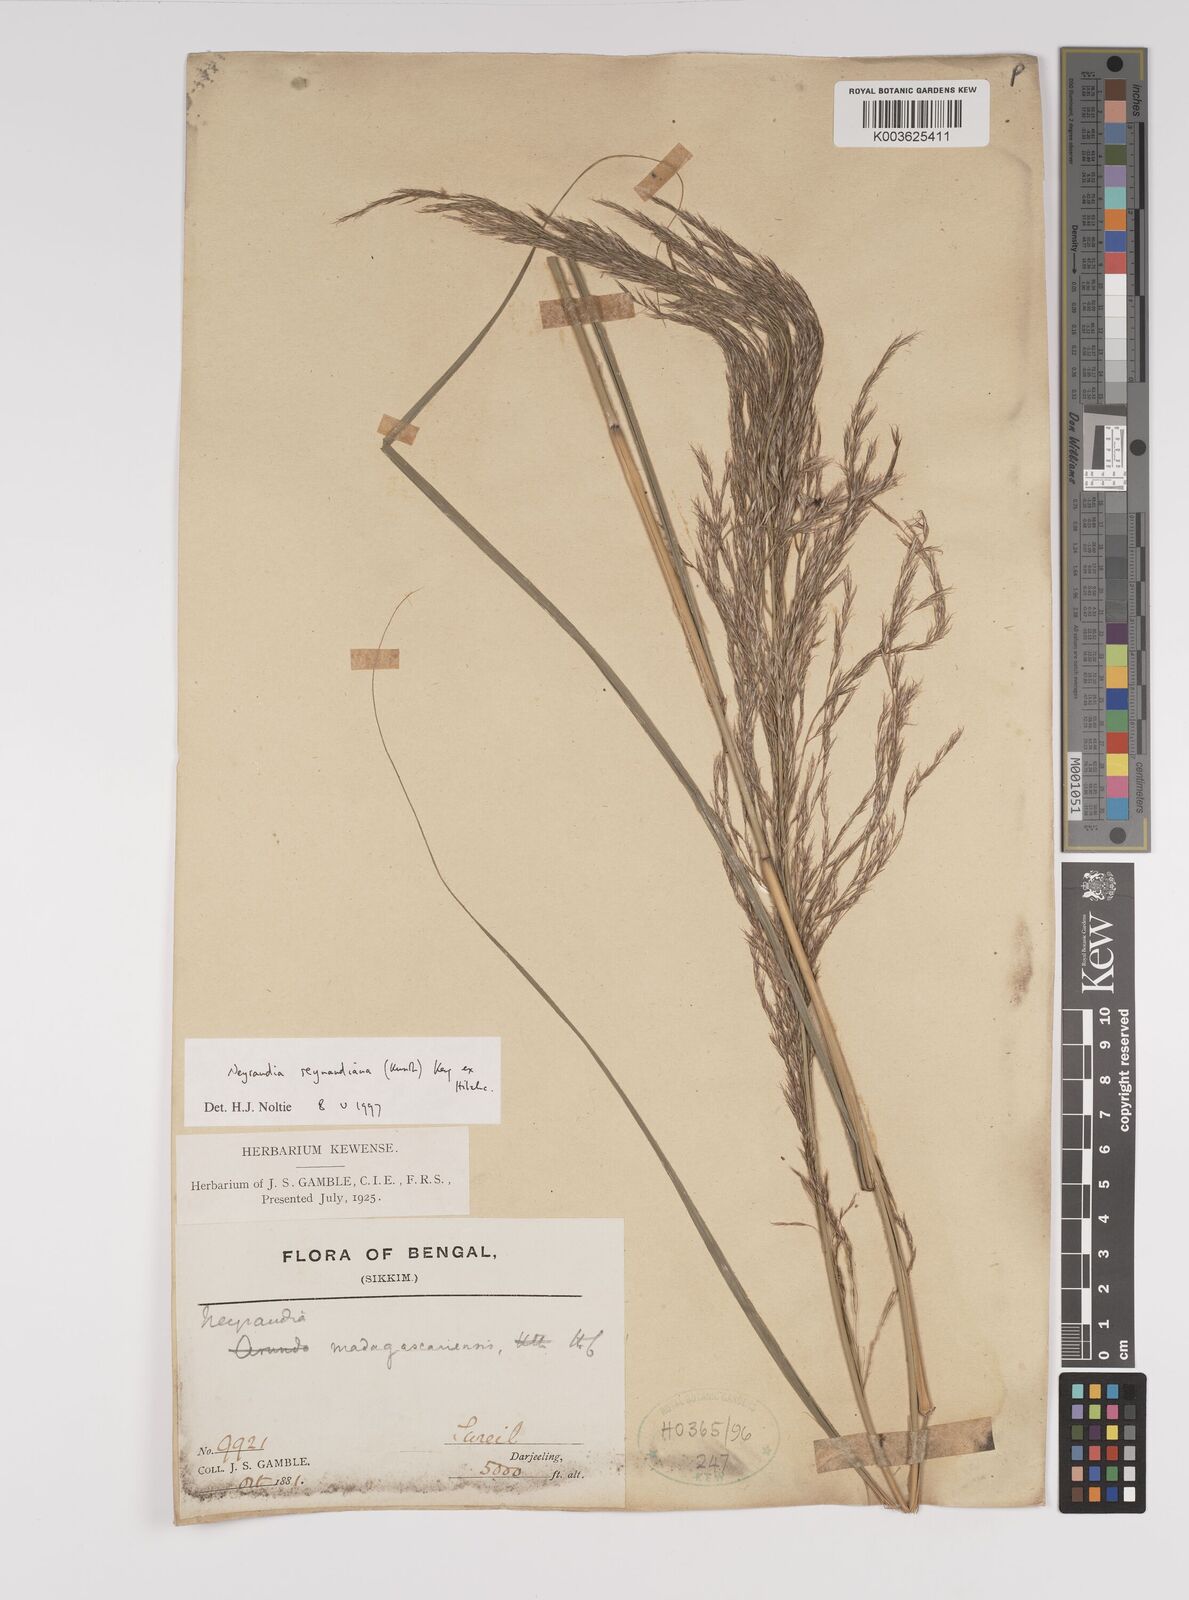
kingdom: Plantae
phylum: Tracheophyta
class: Liliopsida
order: Poales
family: Poaceae
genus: Neyraudia
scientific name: Neyraudia reynaudiana
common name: Silkreed
